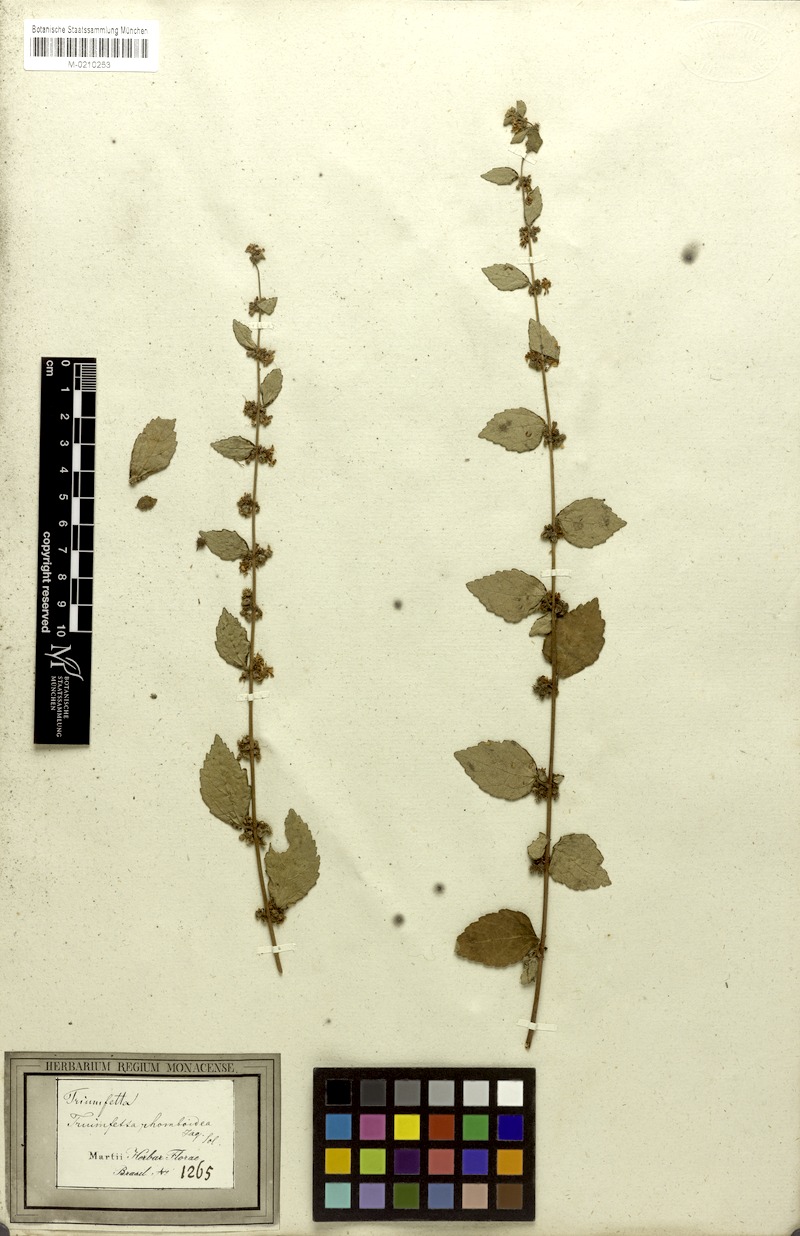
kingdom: Plantae
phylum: Tracheophyta
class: Magnoliopsida
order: Malvales
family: Malvaceae
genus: Triumfetta
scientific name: Triumfetta rhomboidea
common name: Diamond burbark
